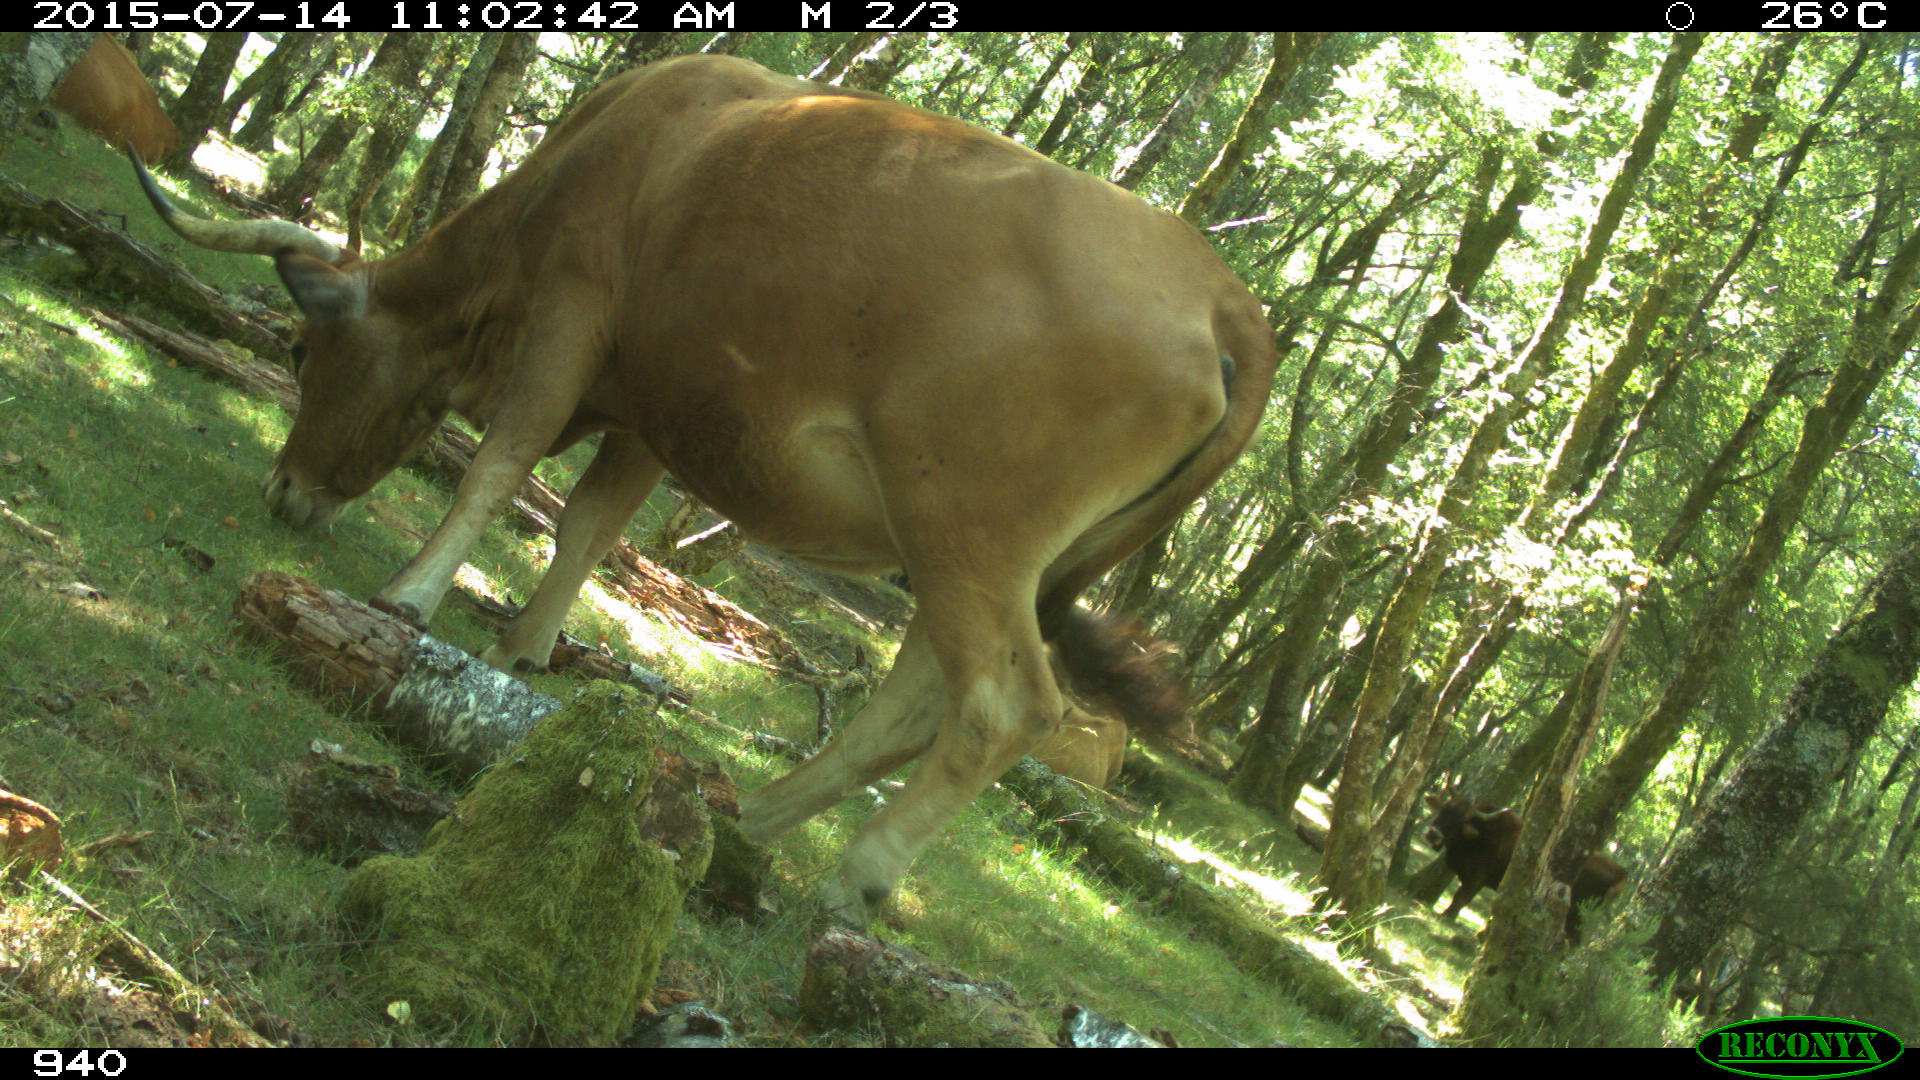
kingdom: Animalia
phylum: Chordata
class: Mammalia
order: Artiodactyla
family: Bovidae
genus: Bos
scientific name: Bos taurus
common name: Domesticated cattle
